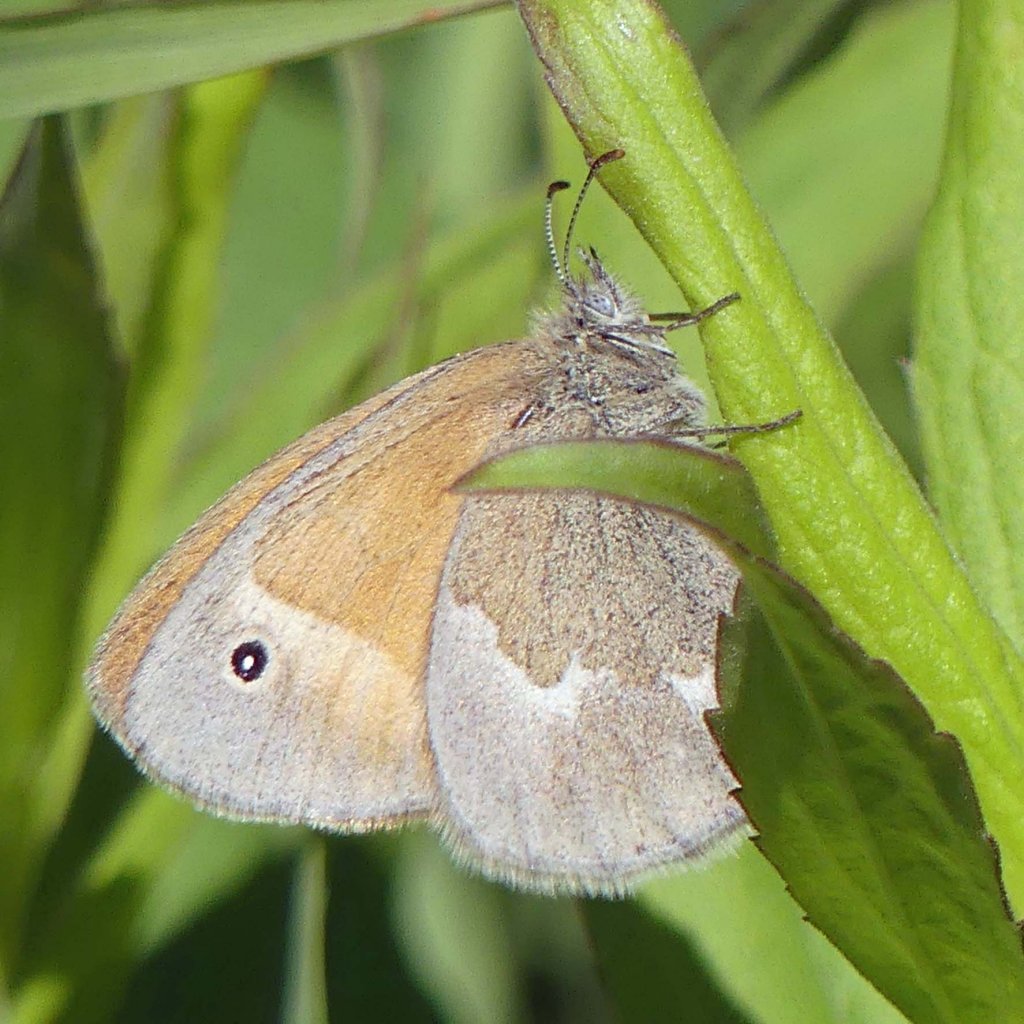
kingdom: Animalia
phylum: Arthropoda
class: Insecta
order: Lepidoptera
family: Nymphalidae
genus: Coenonympha
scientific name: Coenonympha tullia
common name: Large Heath
